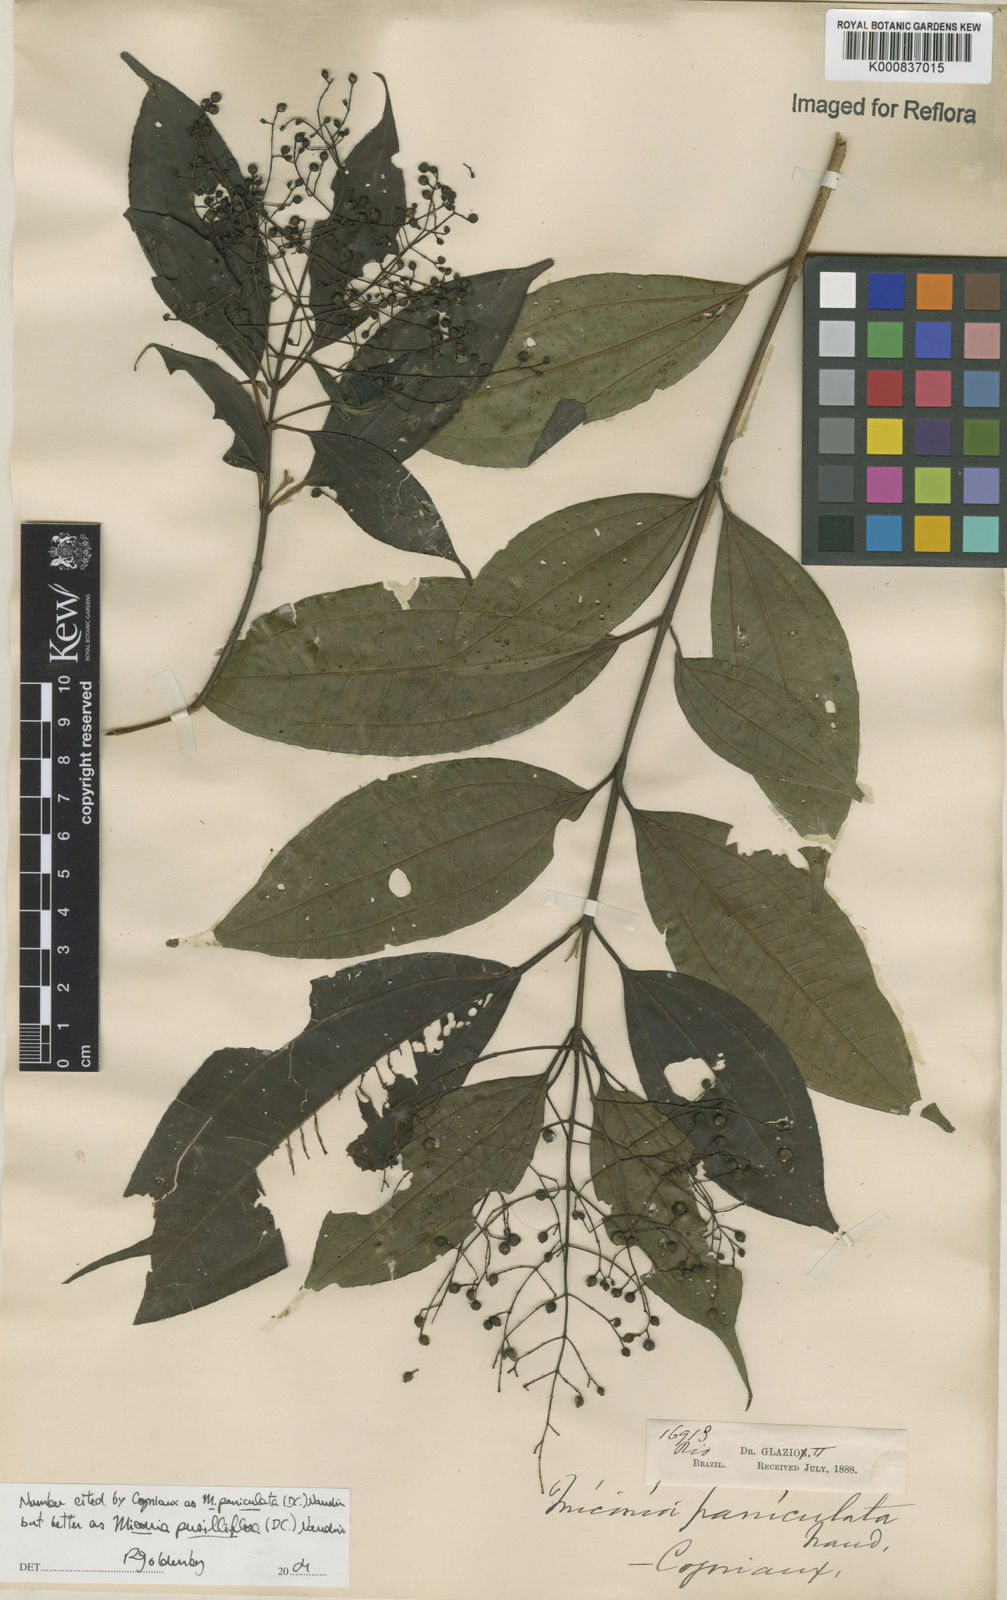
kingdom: Plantae
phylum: Tracheophyta
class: Magnoliopsida
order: Myrtales
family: Melastomataceae
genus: Miconia
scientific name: Miconia paniculata
